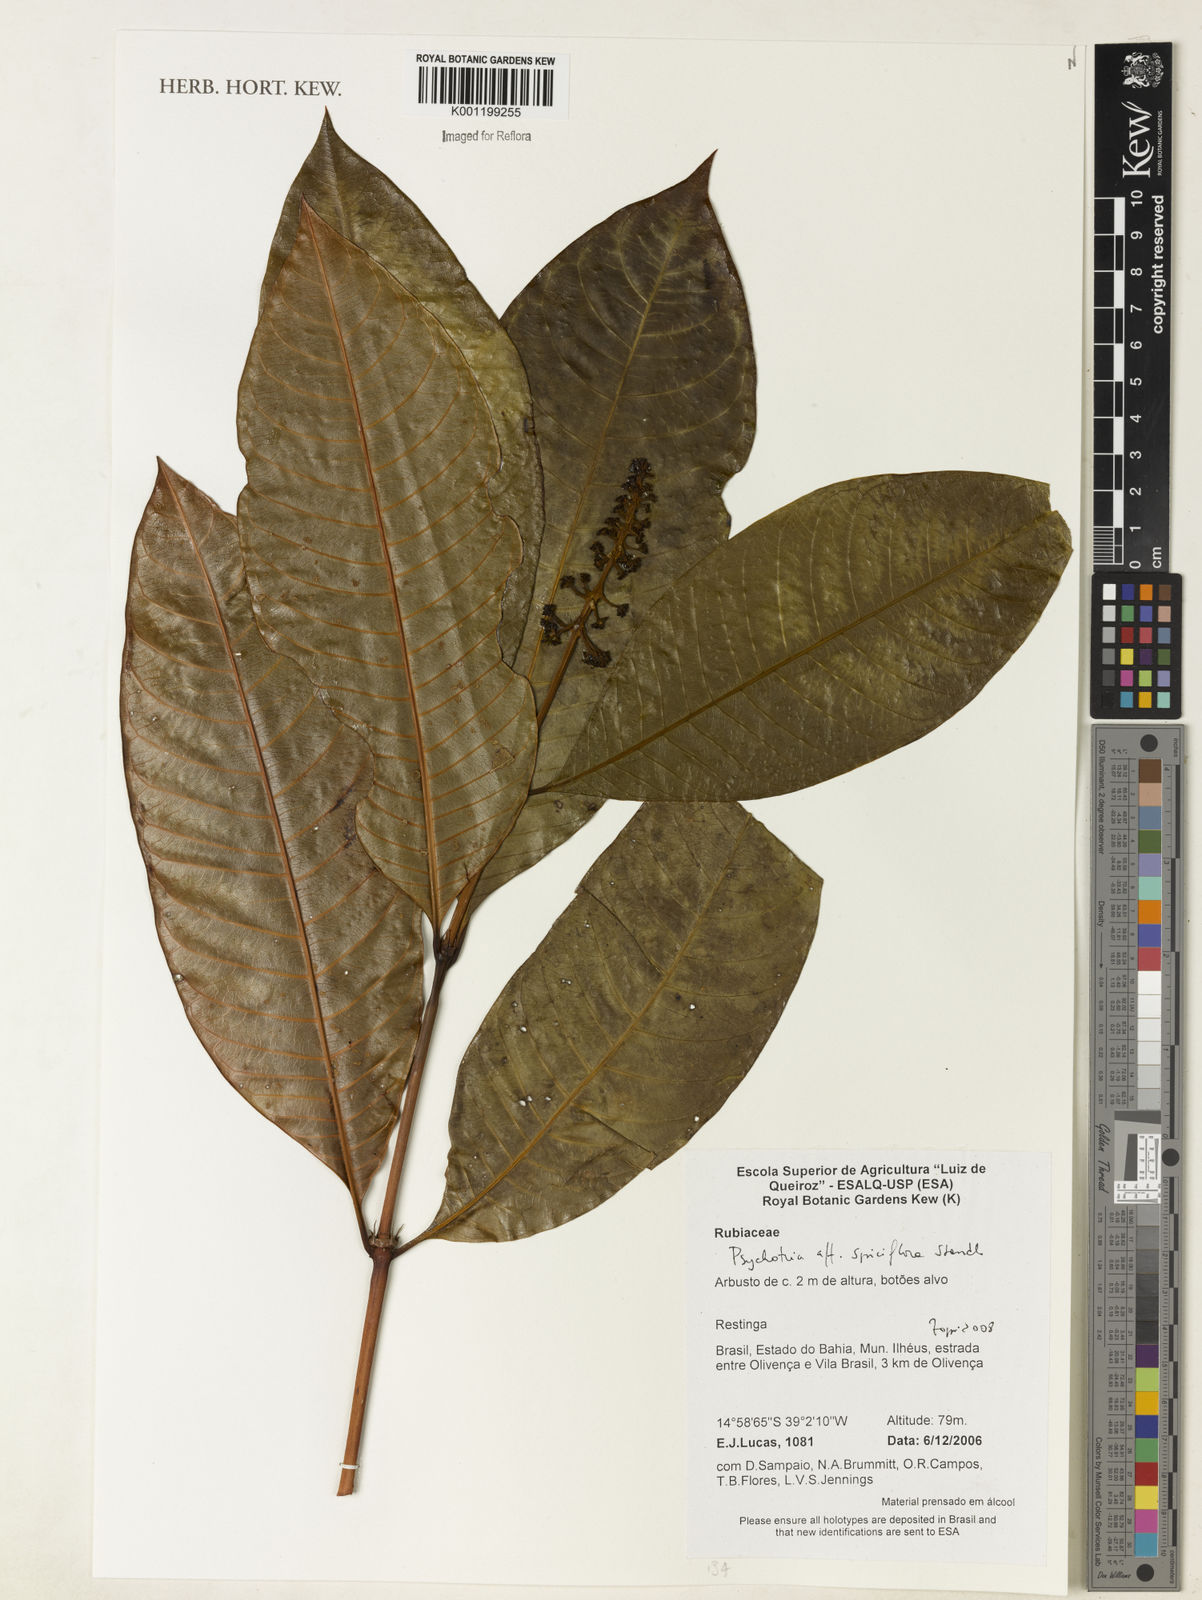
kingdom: Plantae
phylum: Tracheophyta
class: Magnoliopsida
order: Gentianales
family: Rubiaceae
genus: Palicourea
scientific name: Palicourea spicata
